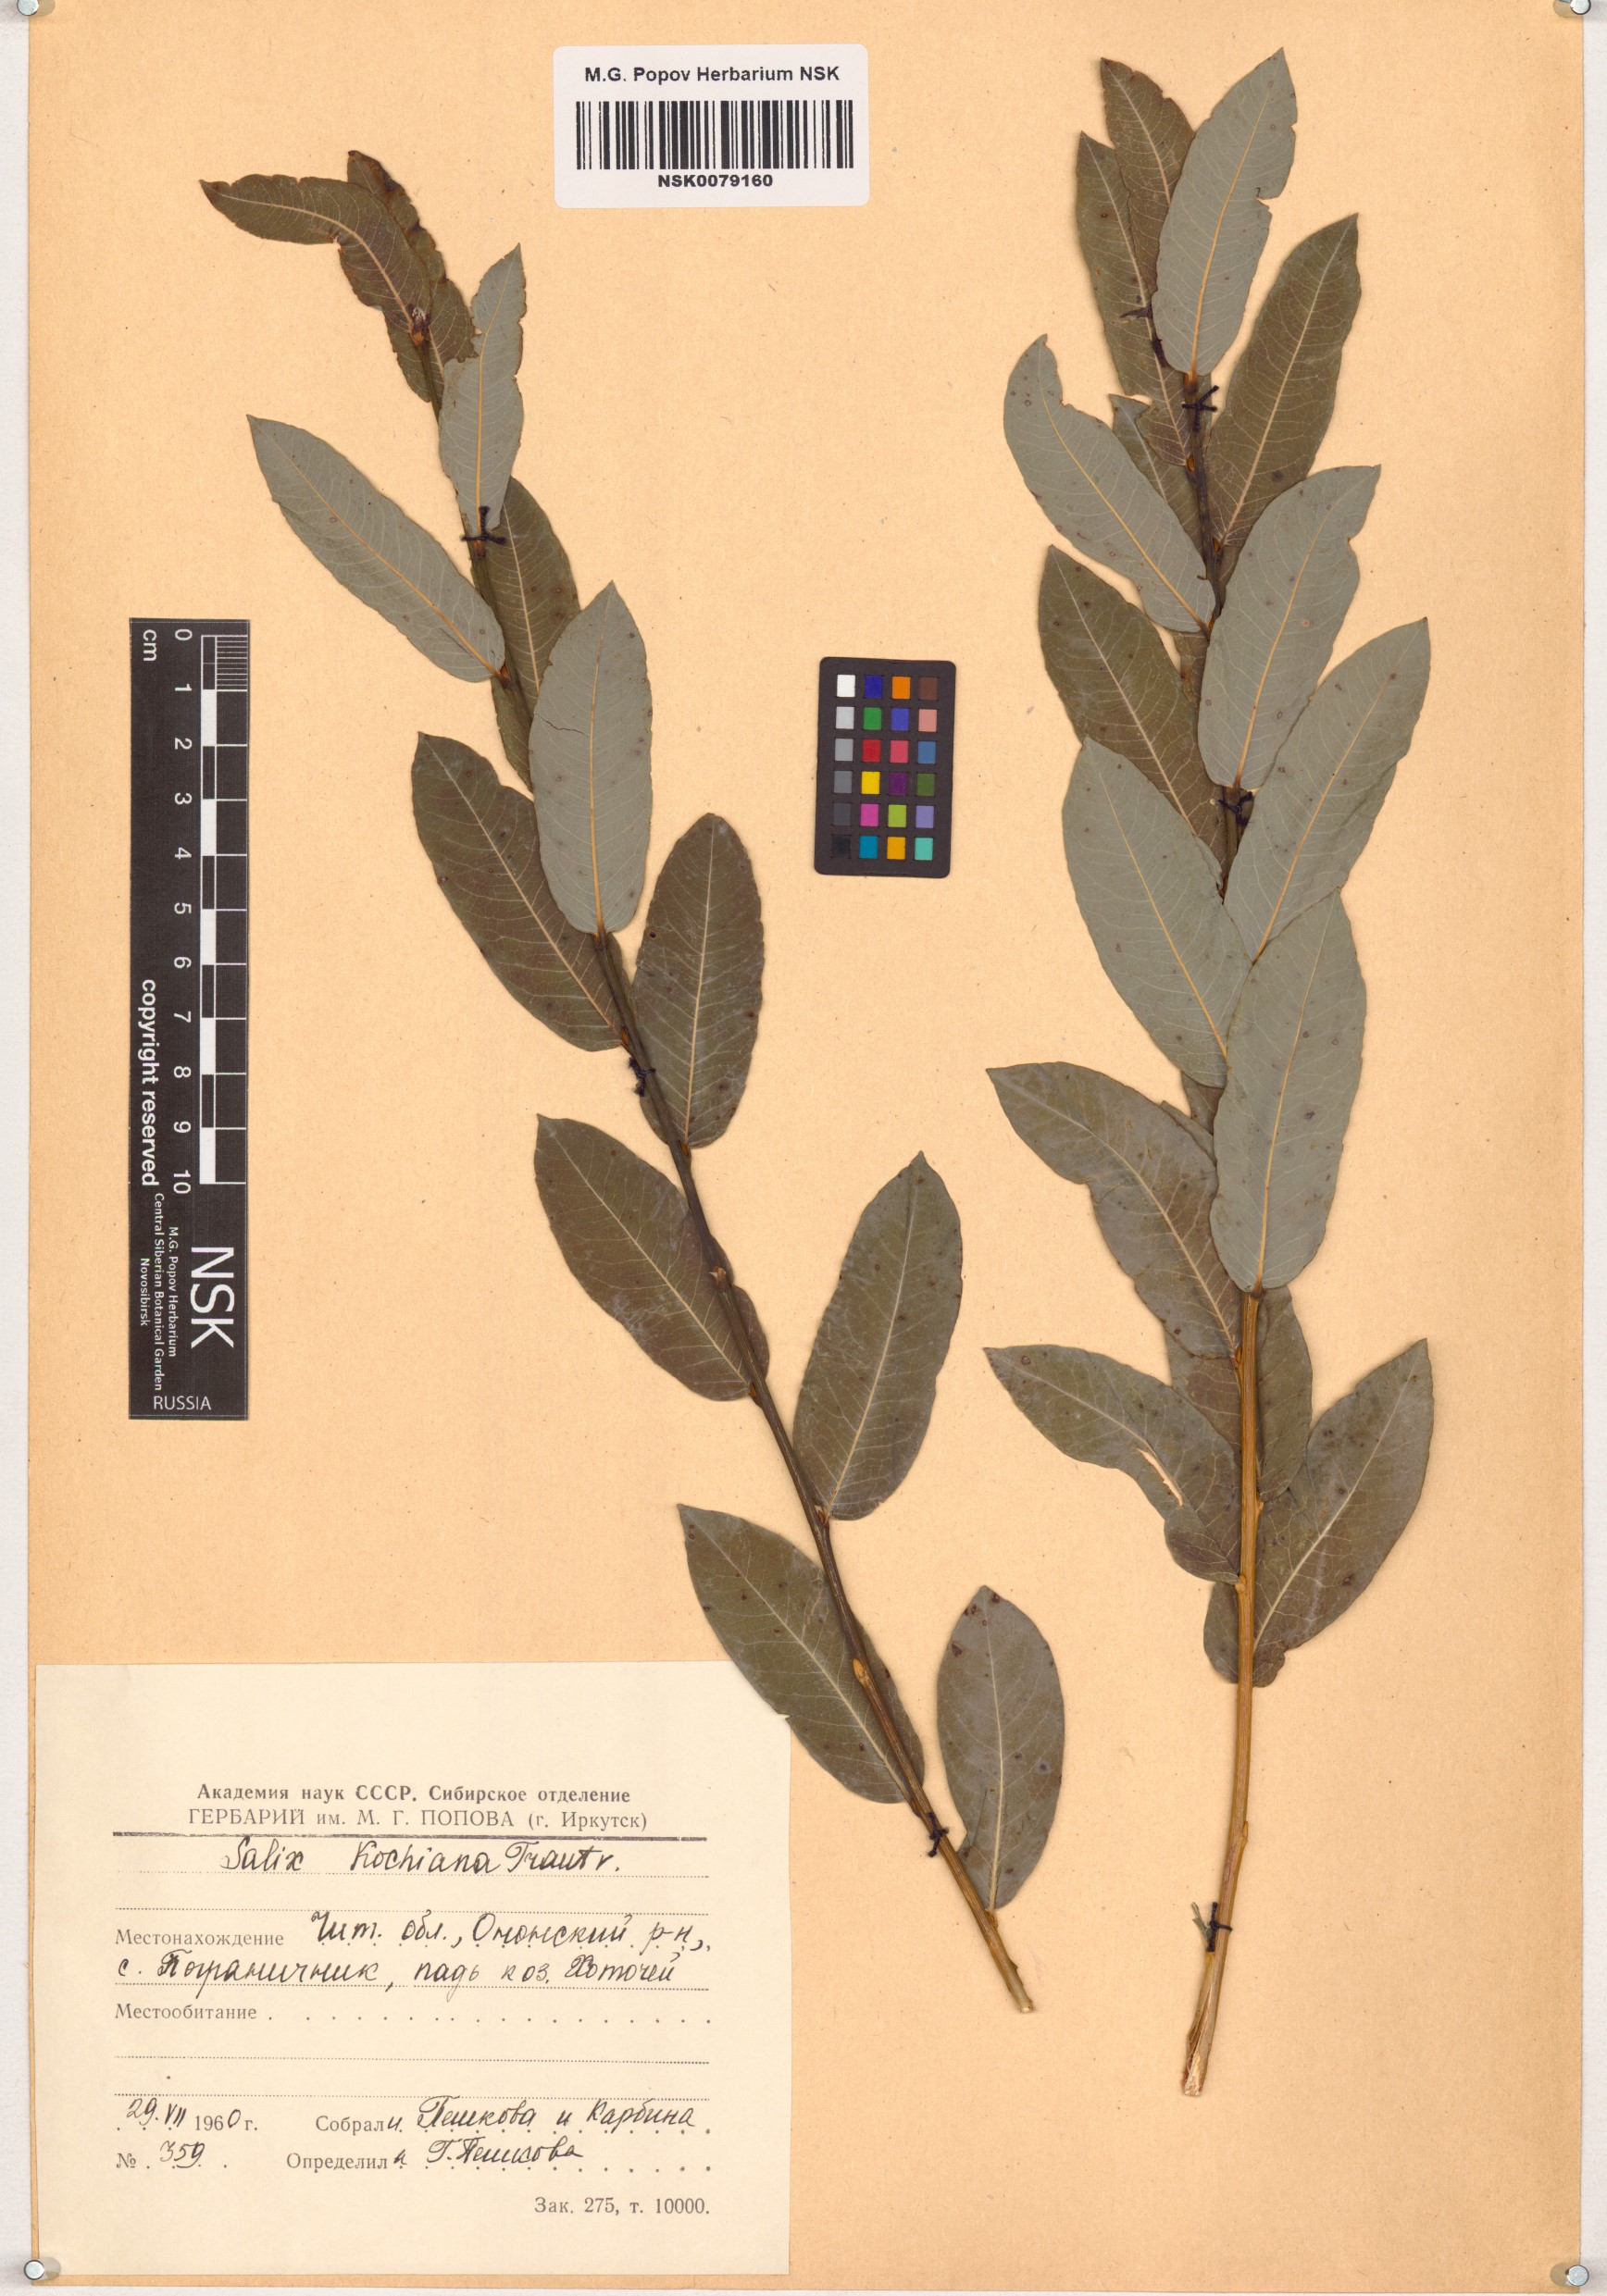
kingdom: Plantae
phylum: Tracheophyta
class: Magnoliopsida
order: Malpighiales
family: Salicaceae
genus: Salix
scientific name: Salix kochiana
